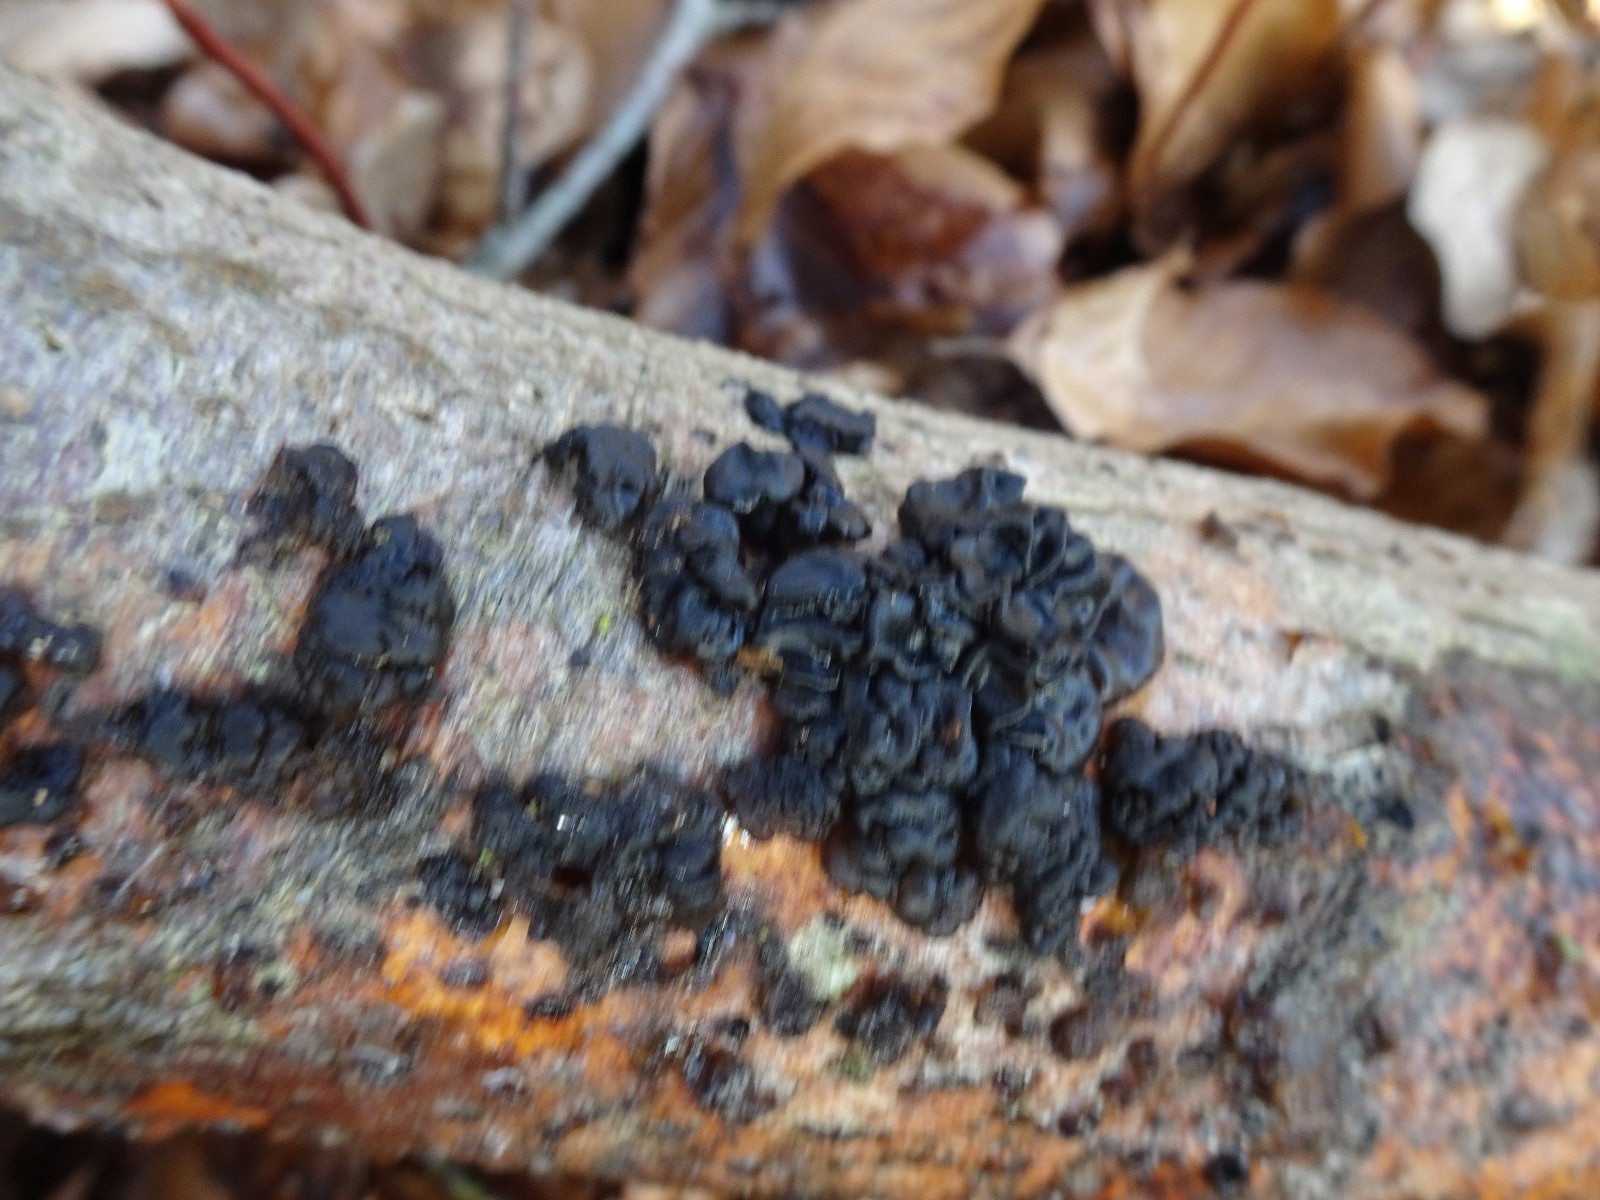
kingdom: Fungi
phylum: Basidiomycota
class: Agaricomycetes
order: Auriculariales
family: Auriculariaceae
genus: Exidia
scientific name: Exidia nigricans
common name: almindelig bævretop
